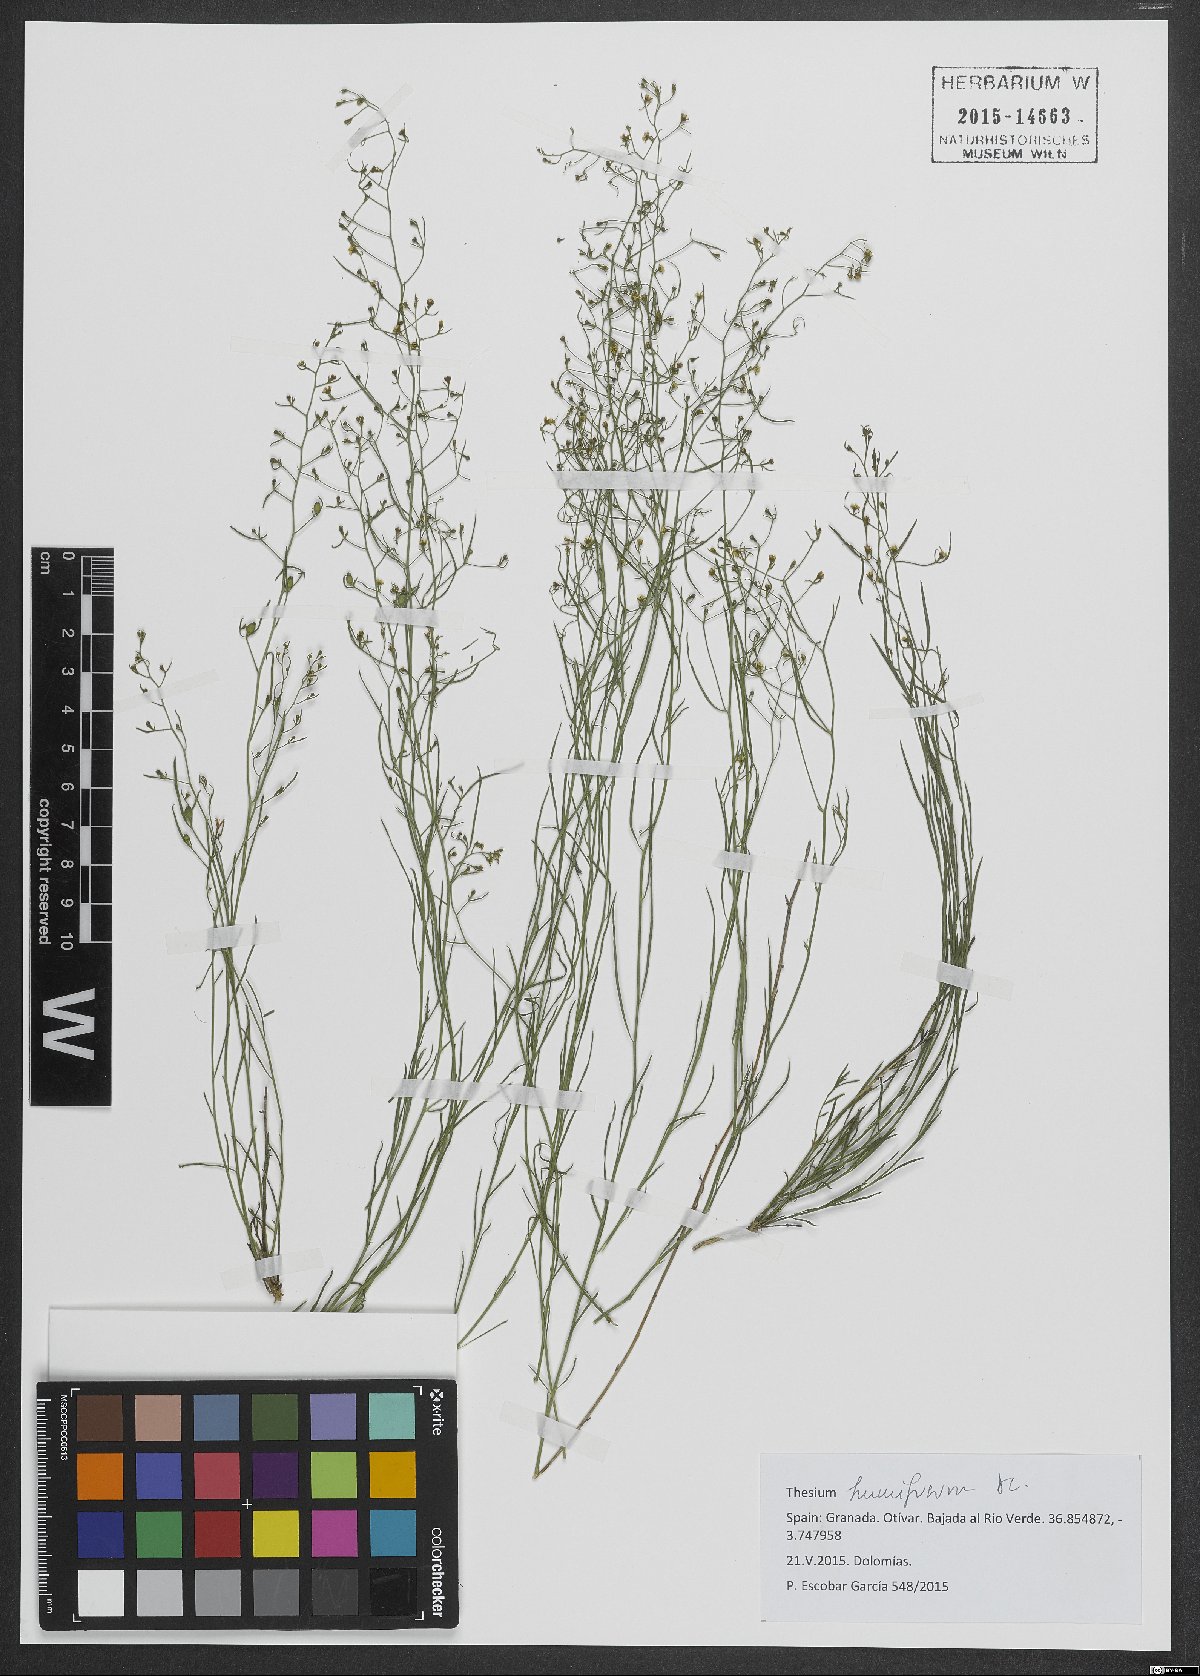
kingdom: Plantae
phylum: Tracheophyta
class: Magnoliopsida
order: Santalales
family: Thesiaceae
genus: Thesium
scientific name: Thesium humifusum
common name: Bastard-toadflax
